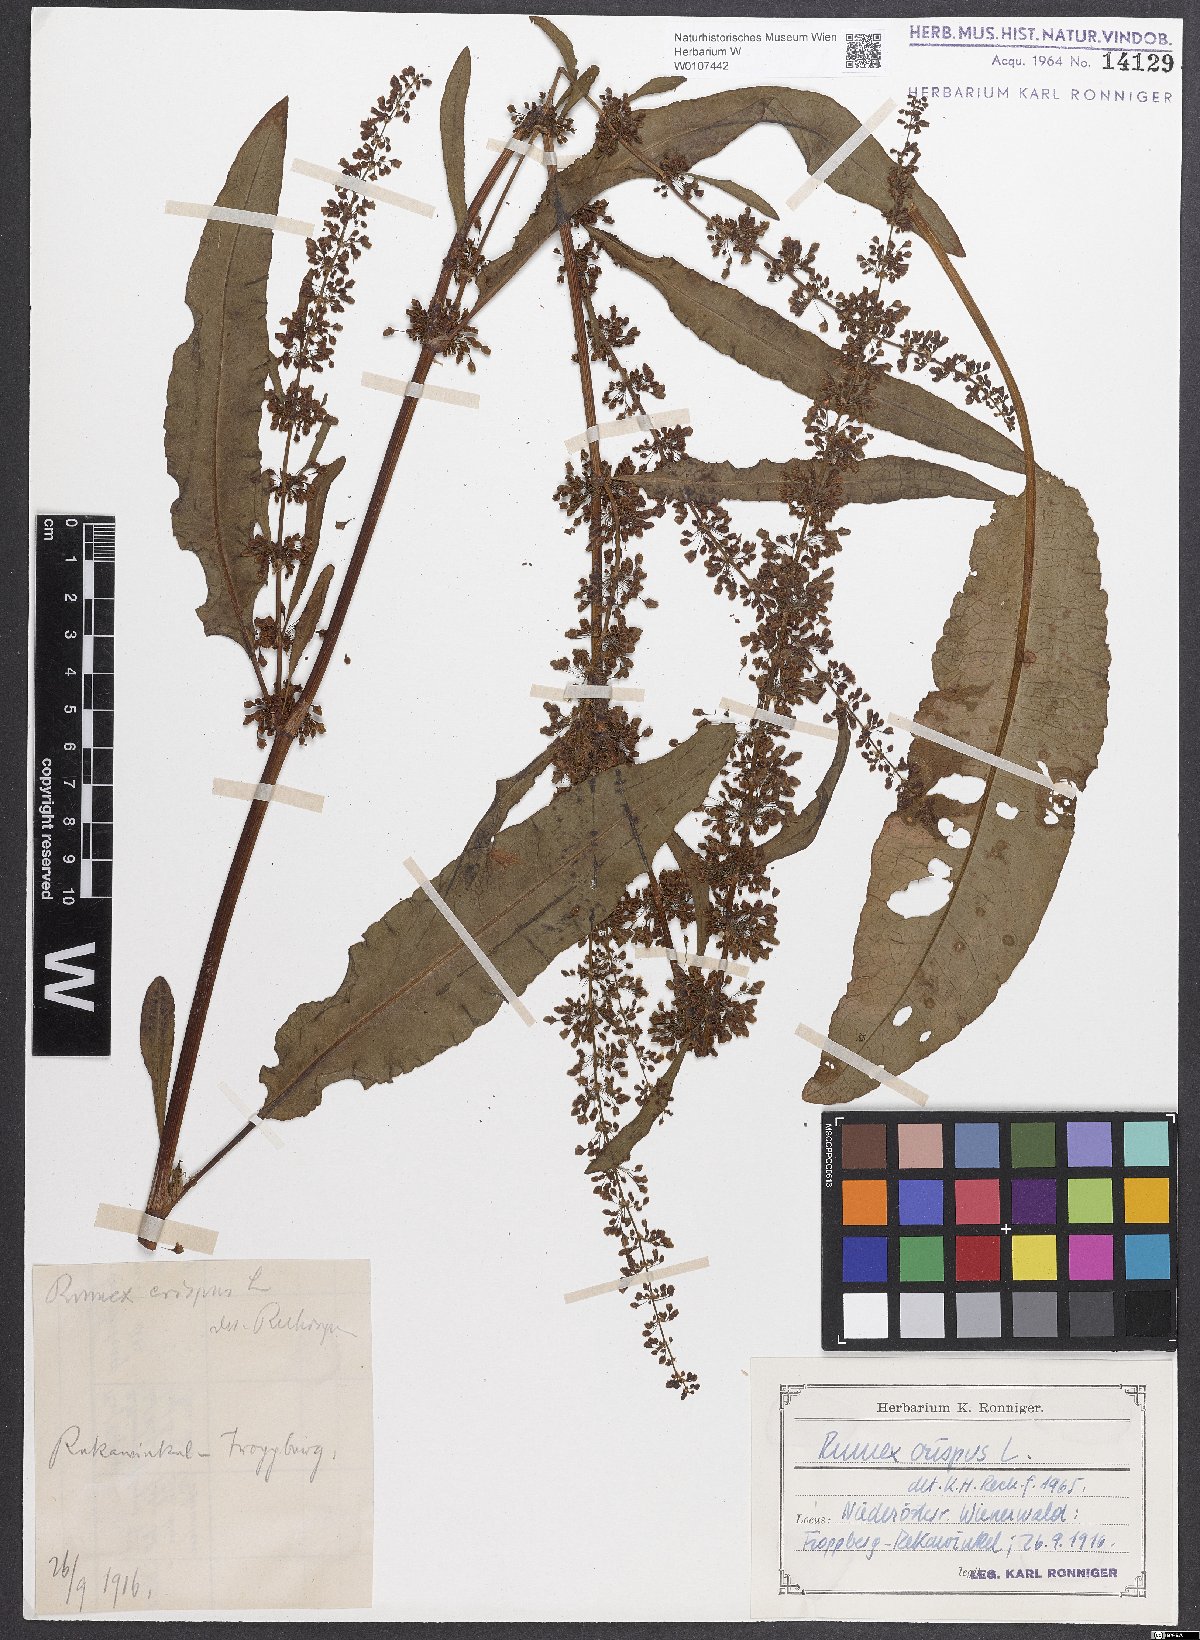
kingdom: Plantae
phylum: Tracheophyta
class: Magnoliopsida
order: Caryophyllales
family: Polygonaceae
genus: Rumex
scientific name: Rumex crispus
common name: Curled dock
